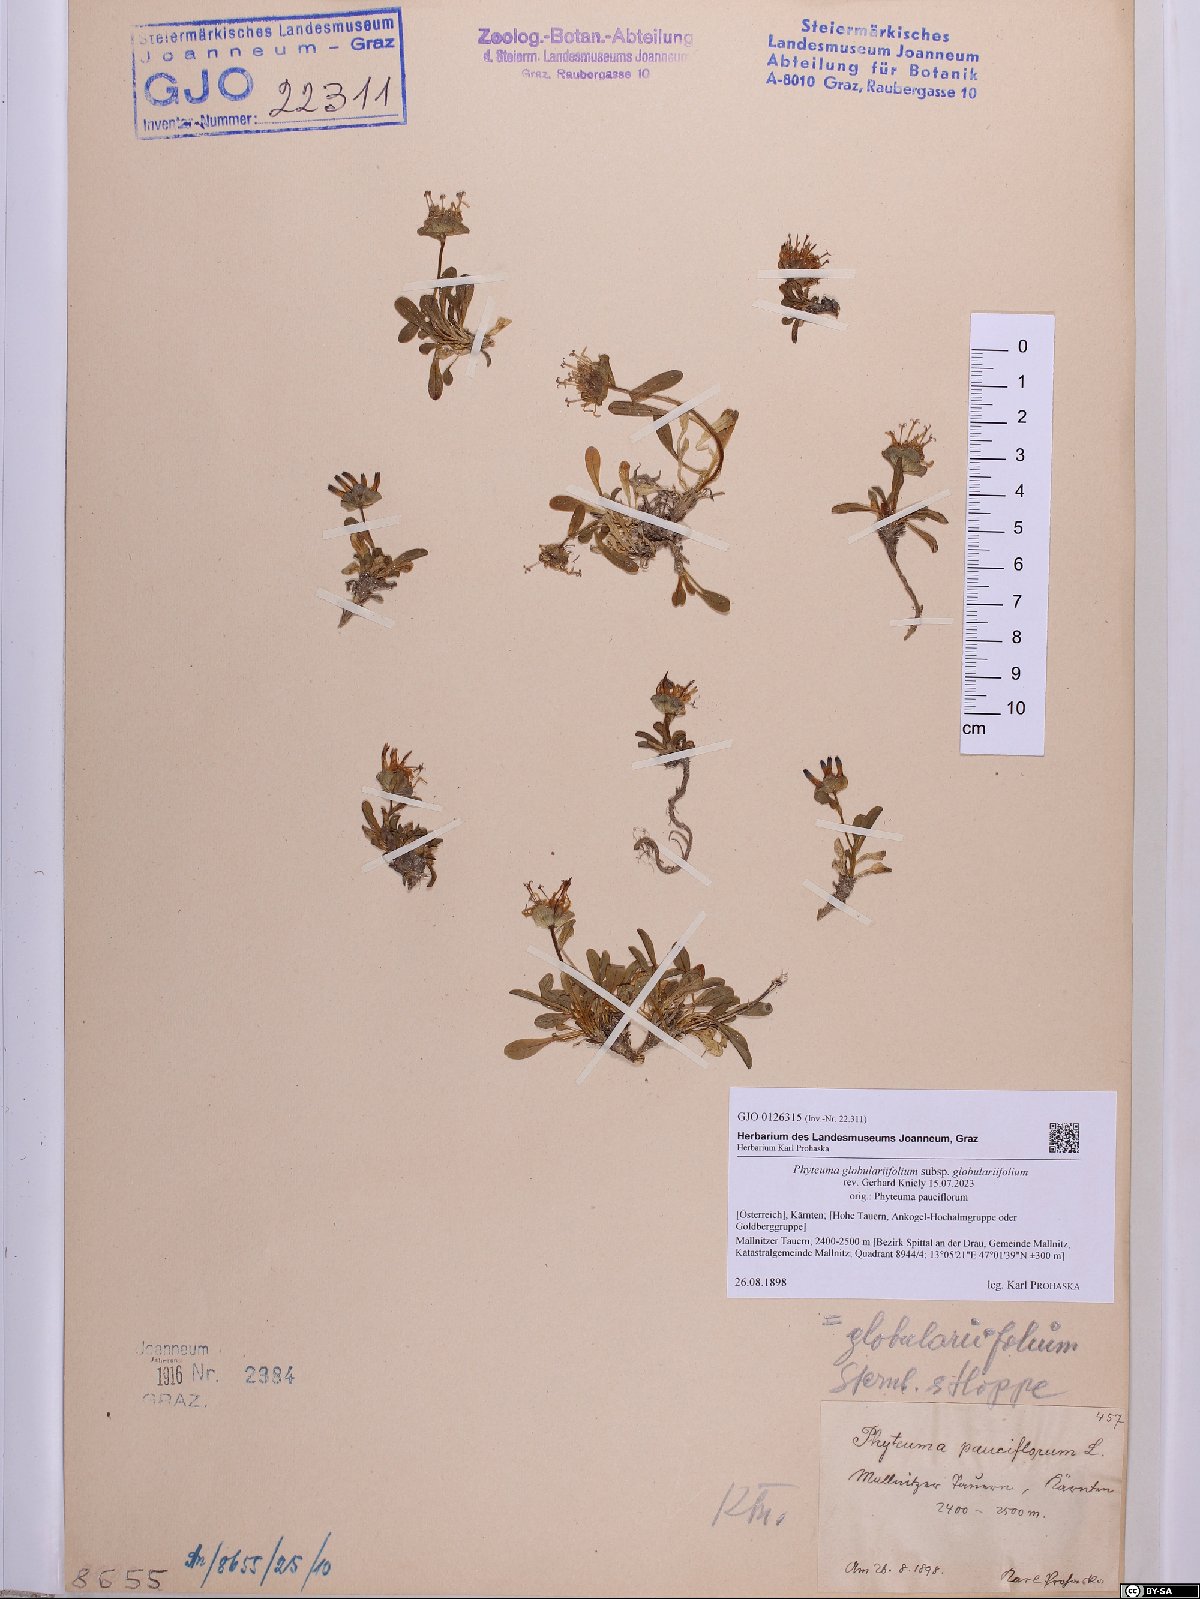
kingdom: Plantae
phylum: Tracheophyta
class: Magnoliopsida
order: Asterales
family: Campanulaceae
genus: Phyteuma
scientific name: Phyteuma globulariifolium
